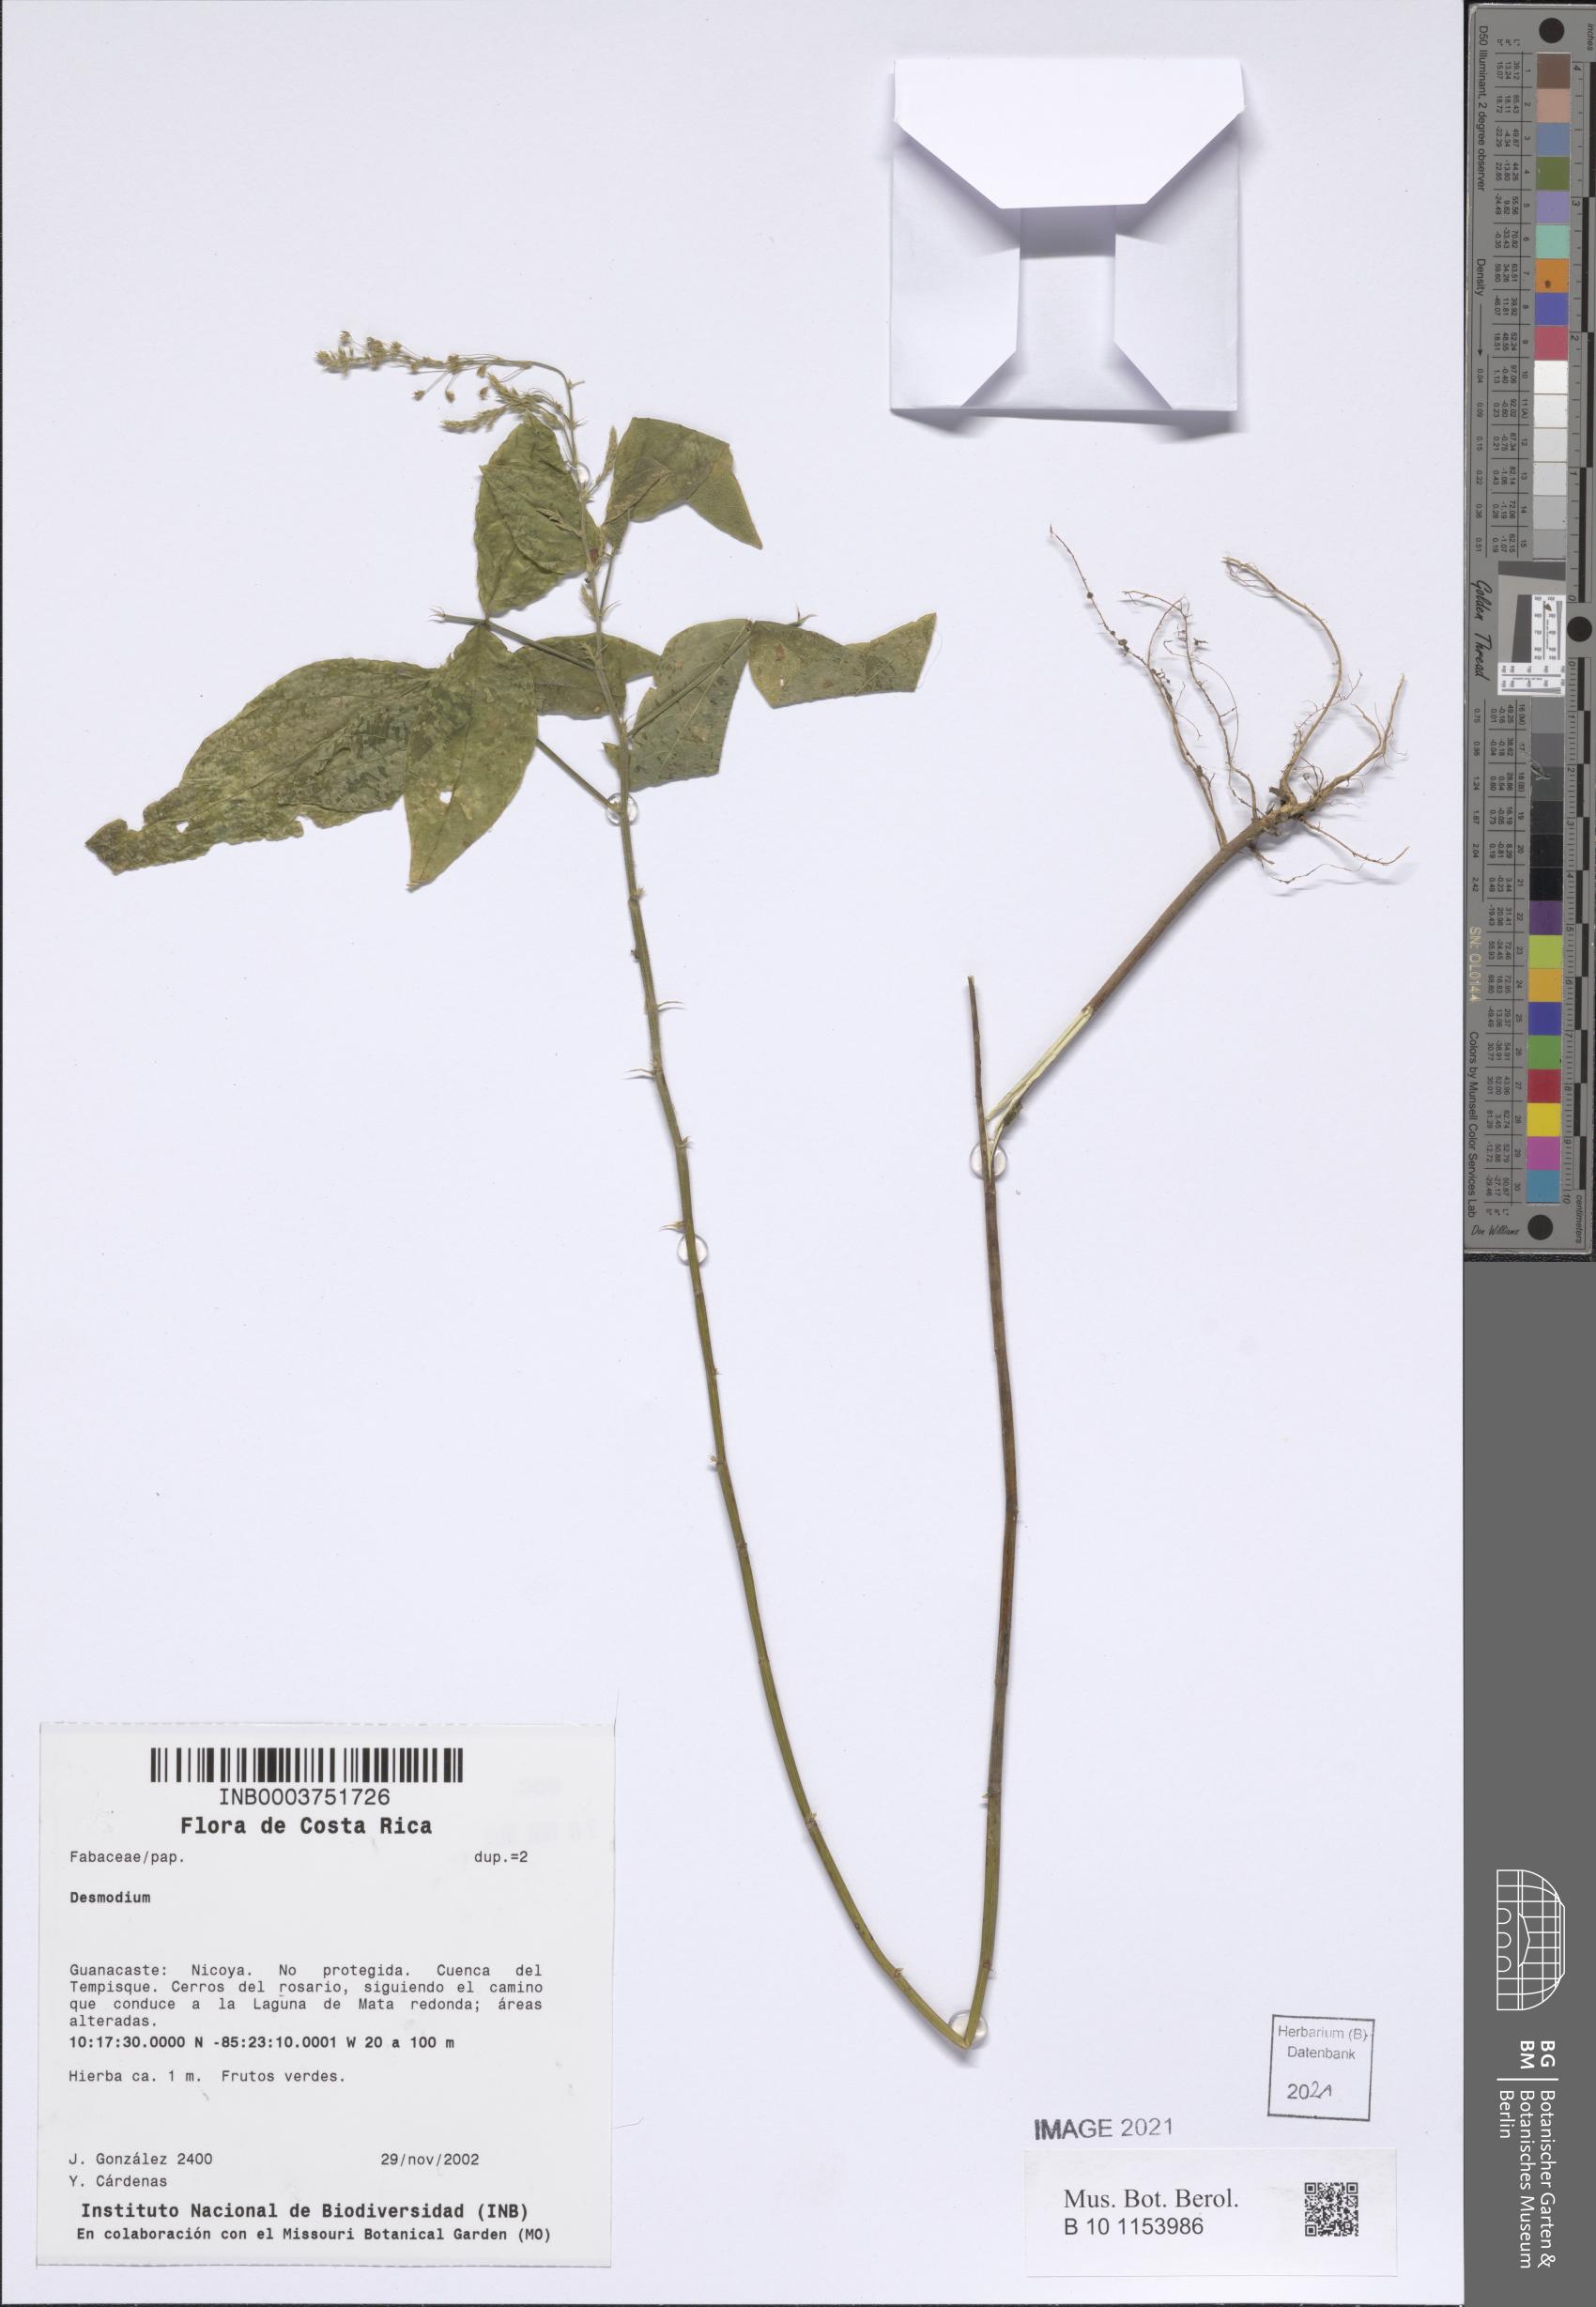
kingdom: Plantae
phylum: Tracheophyta
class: Magnoliopsida
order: Fabales
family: Fabaceae
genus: Desmodium
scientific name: Desmodium
